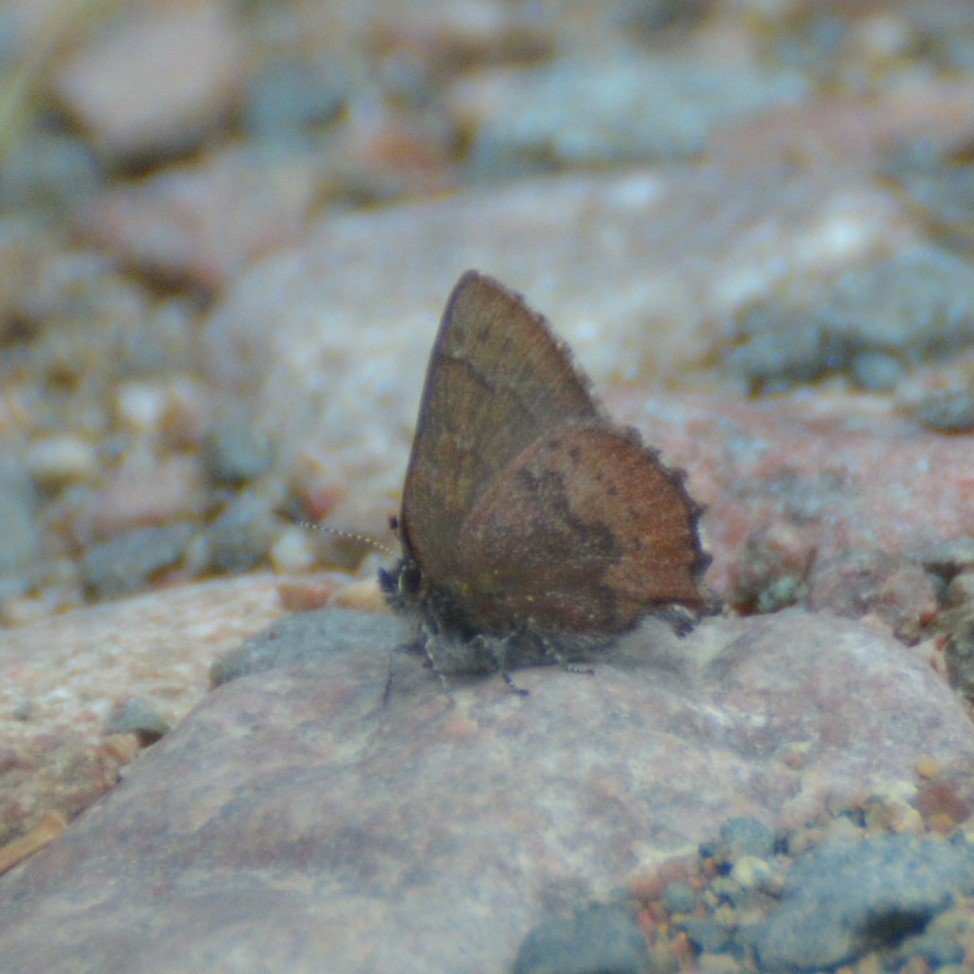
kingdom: Animalia
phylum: Arthropoda
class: Insecta
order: Lepidoptera
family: Lycaenidae
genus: Incisalia
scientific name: Incisalia irioides
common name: Brown Elfin
